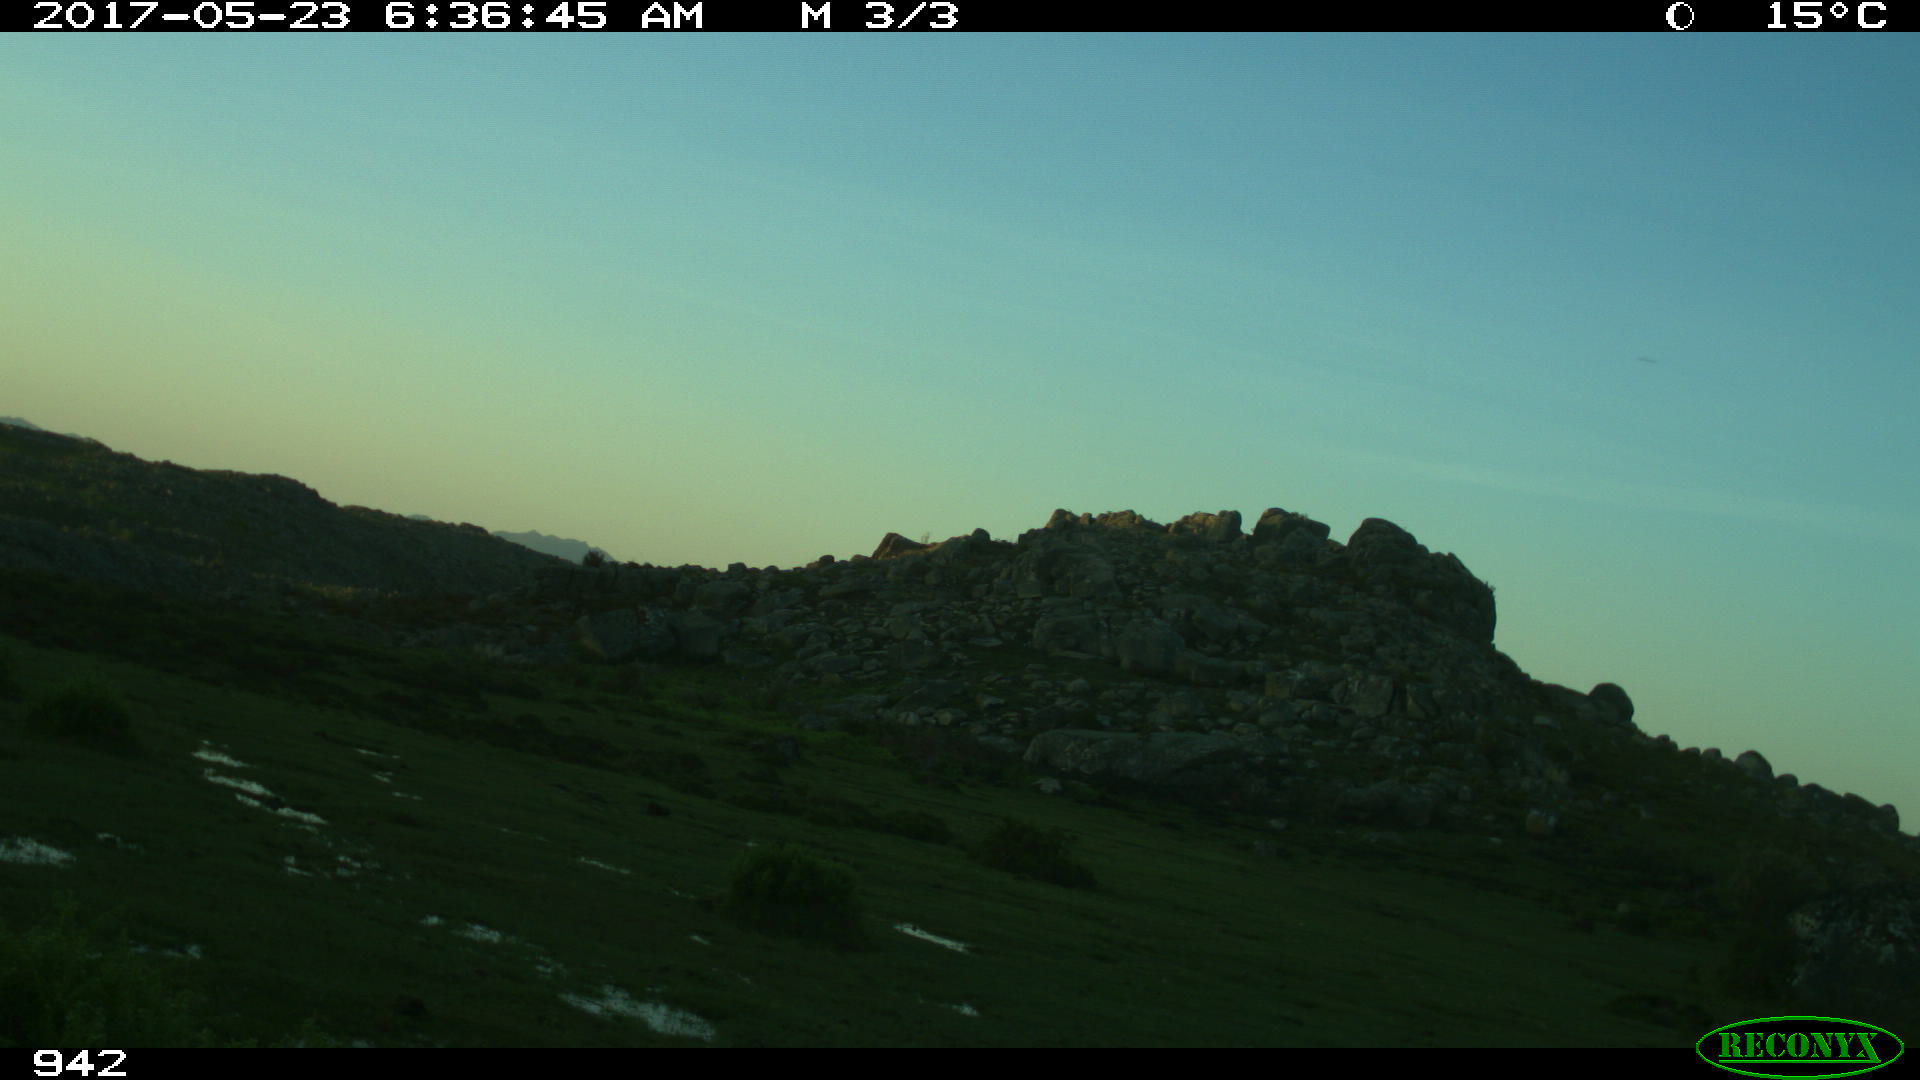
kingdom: Animalia
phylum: Chordata
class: Mammalia
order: Perissodactyla
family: Equidae
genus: Equus
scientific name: Equus caballus
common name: Horse
